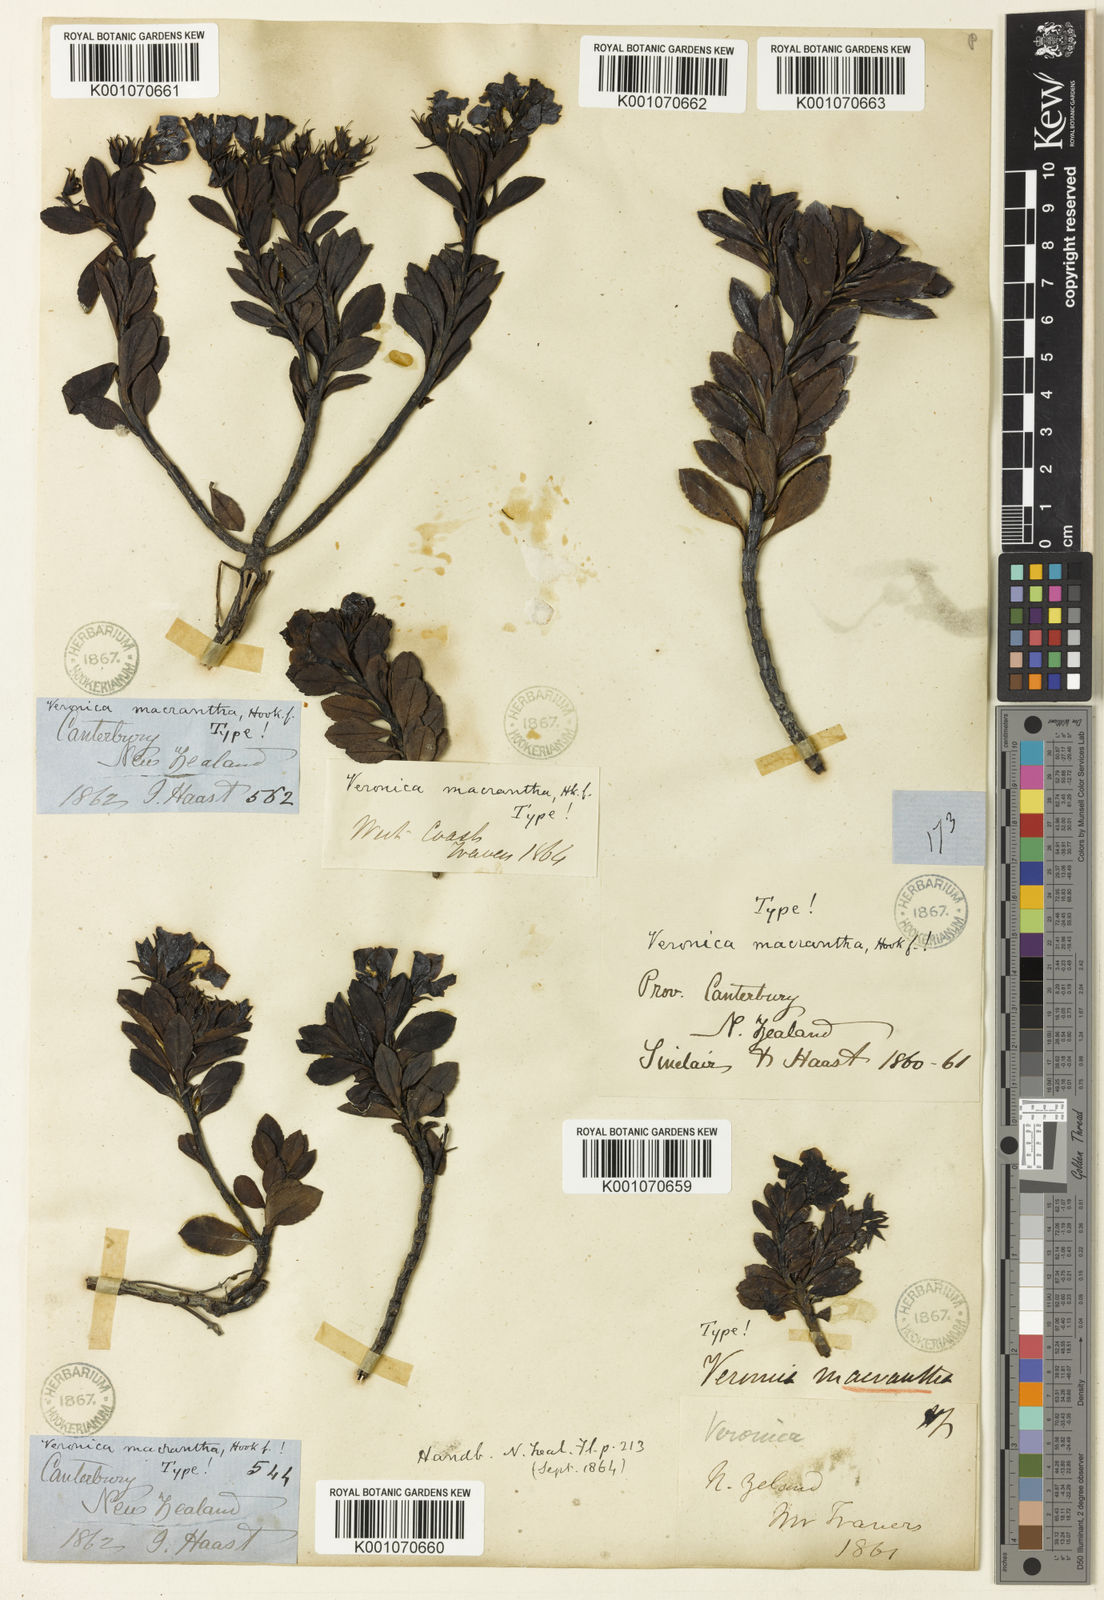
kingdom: Plantae
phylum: Tracheophyta
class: Magnoliopsida
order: Lamiales
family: Plantaginaceae
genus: Veronica
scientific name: Veronica
